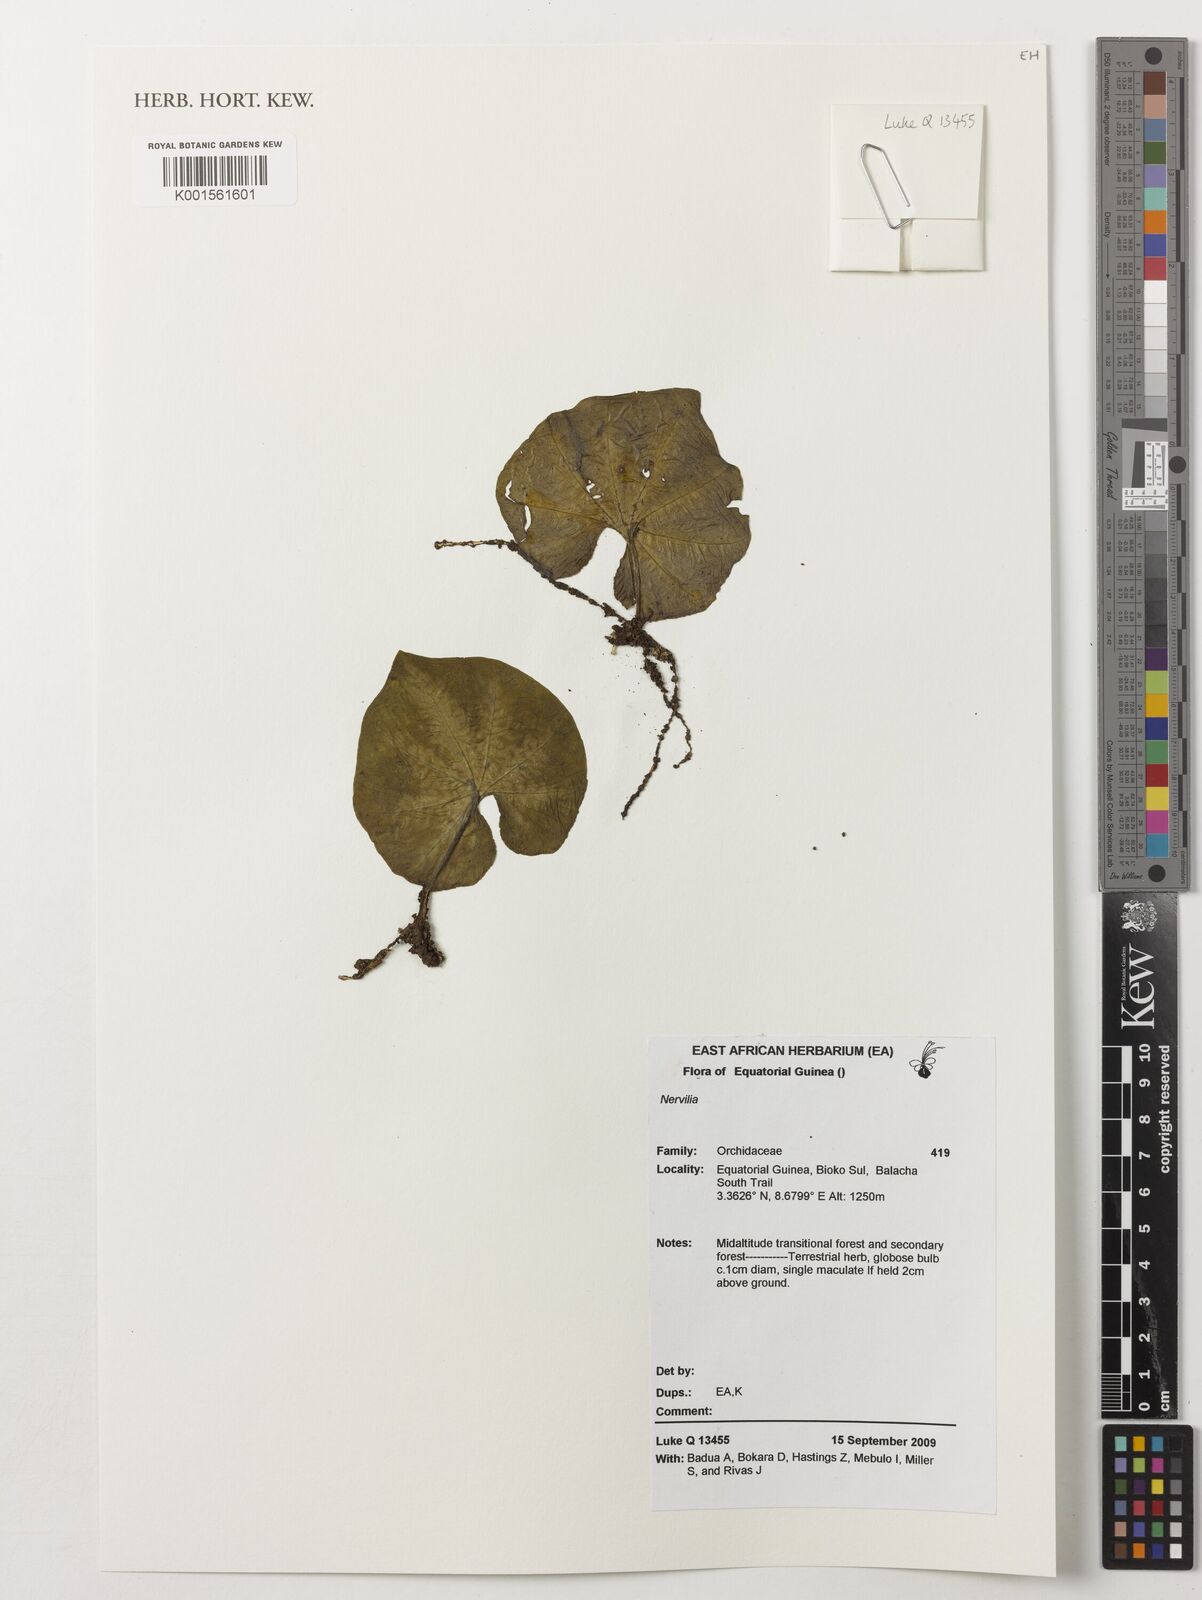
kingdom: Plantae
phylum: Tracheophyta
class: Liliopsida
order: Asparagales
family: Orchidaceae
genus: Nervilia
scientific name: Nervilia
